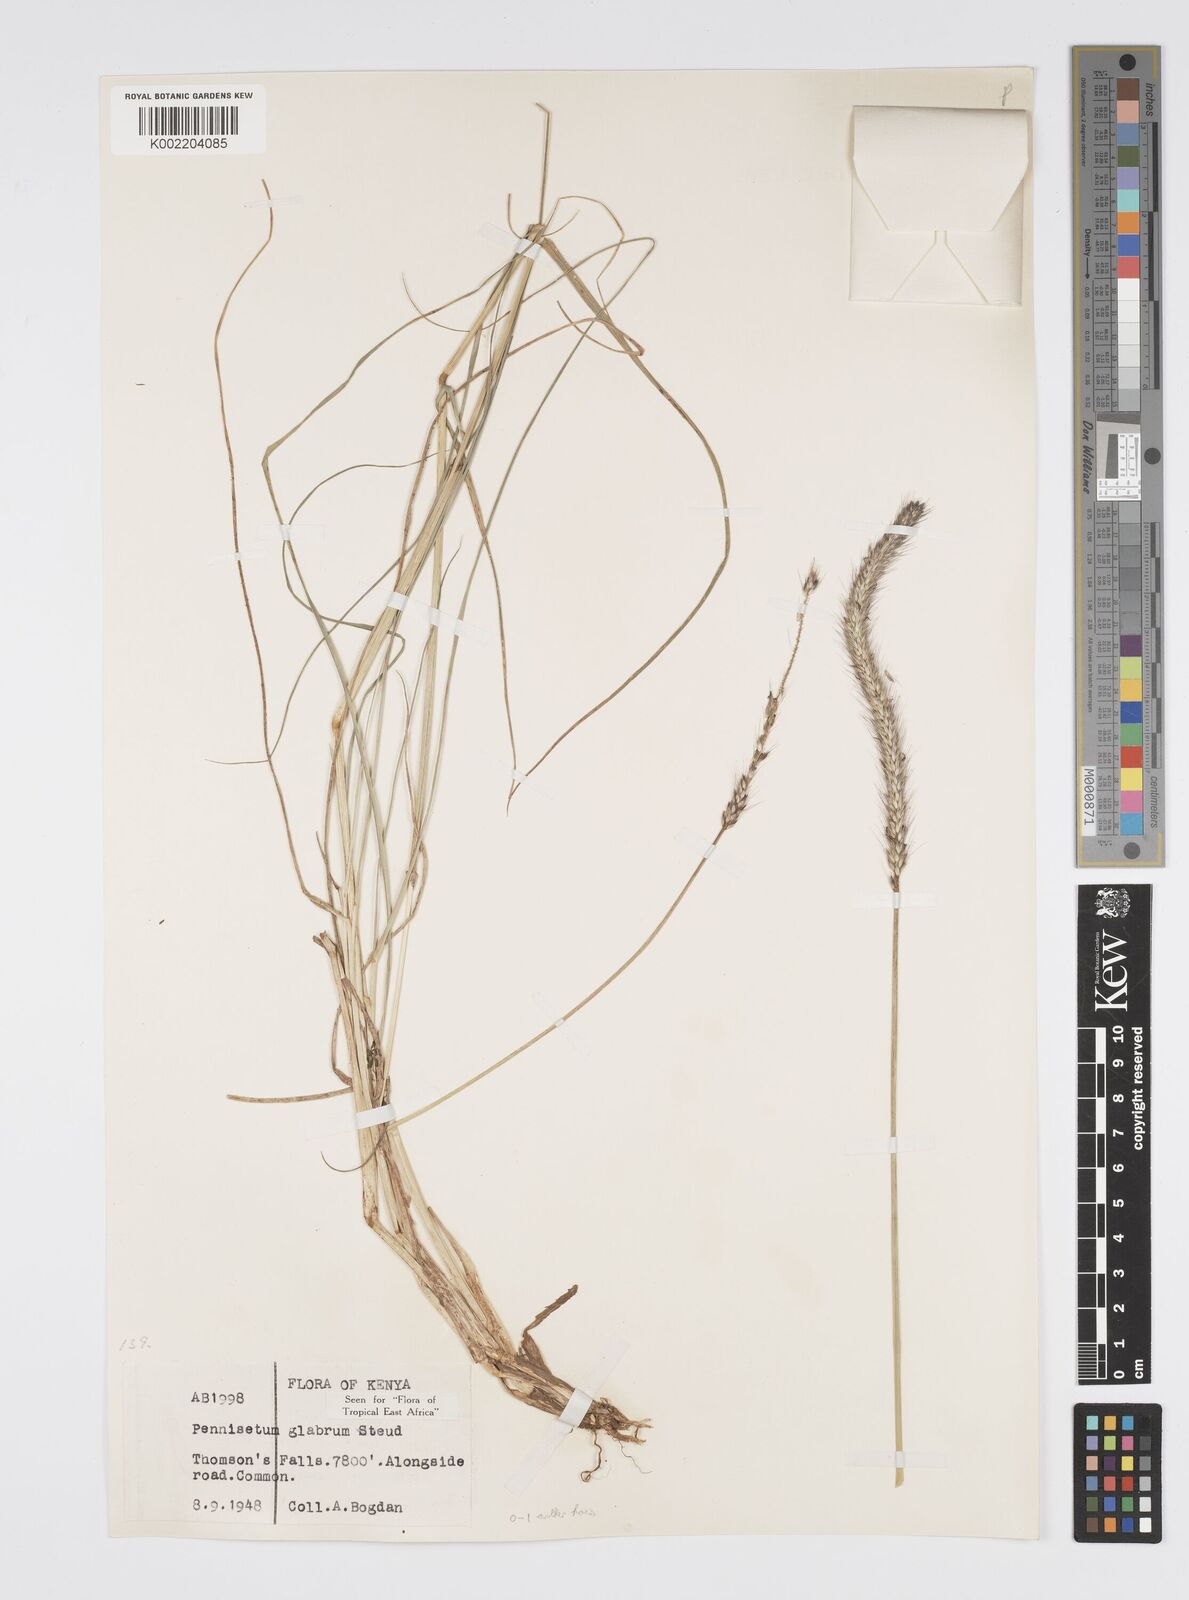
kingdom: Plantae
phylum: Tracheophyta
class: Liliopsida
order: Poales
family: Poaceae
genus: Cenchrus
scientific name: Cenchrus geniculatus
